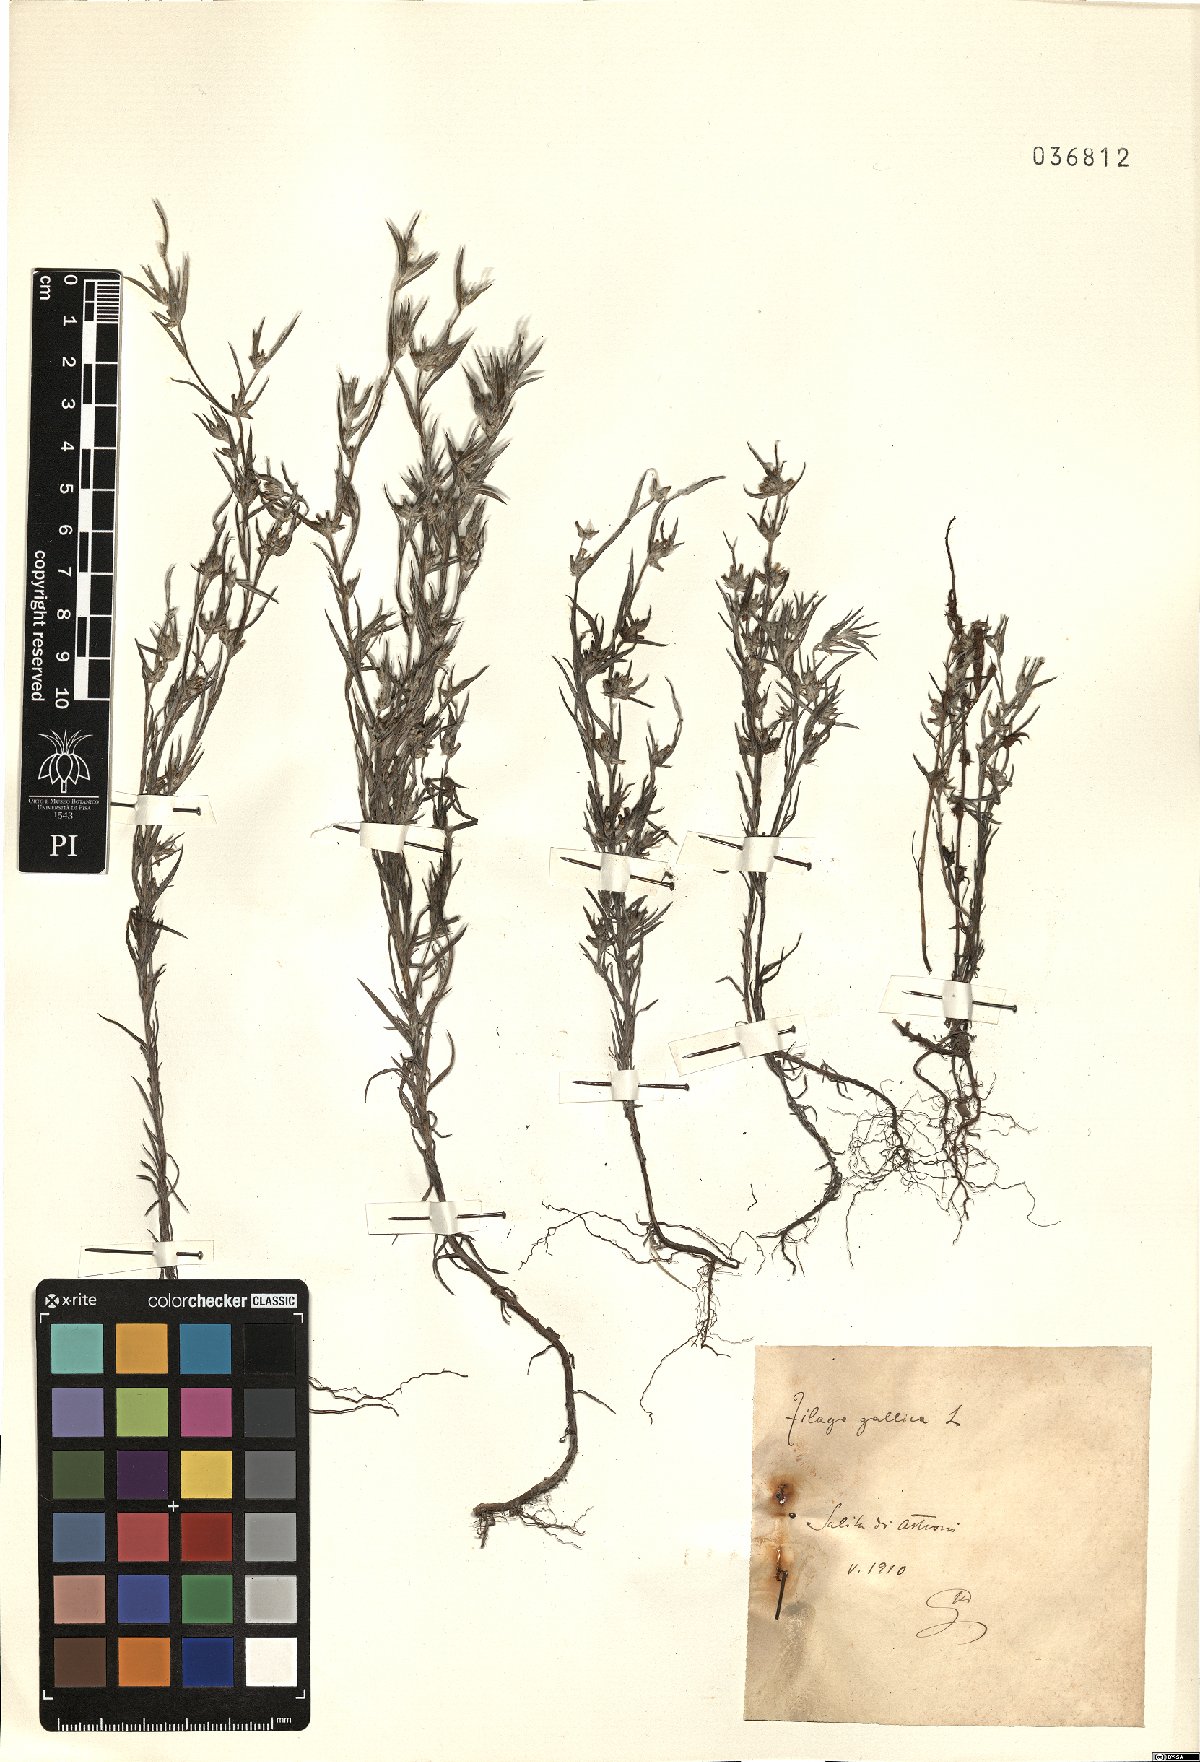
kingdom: Plantae
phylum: Tracheophyta
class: Magnoliopsida
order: Asterales
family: Asteraceae
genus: Logfia
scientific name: Logfia gallica
